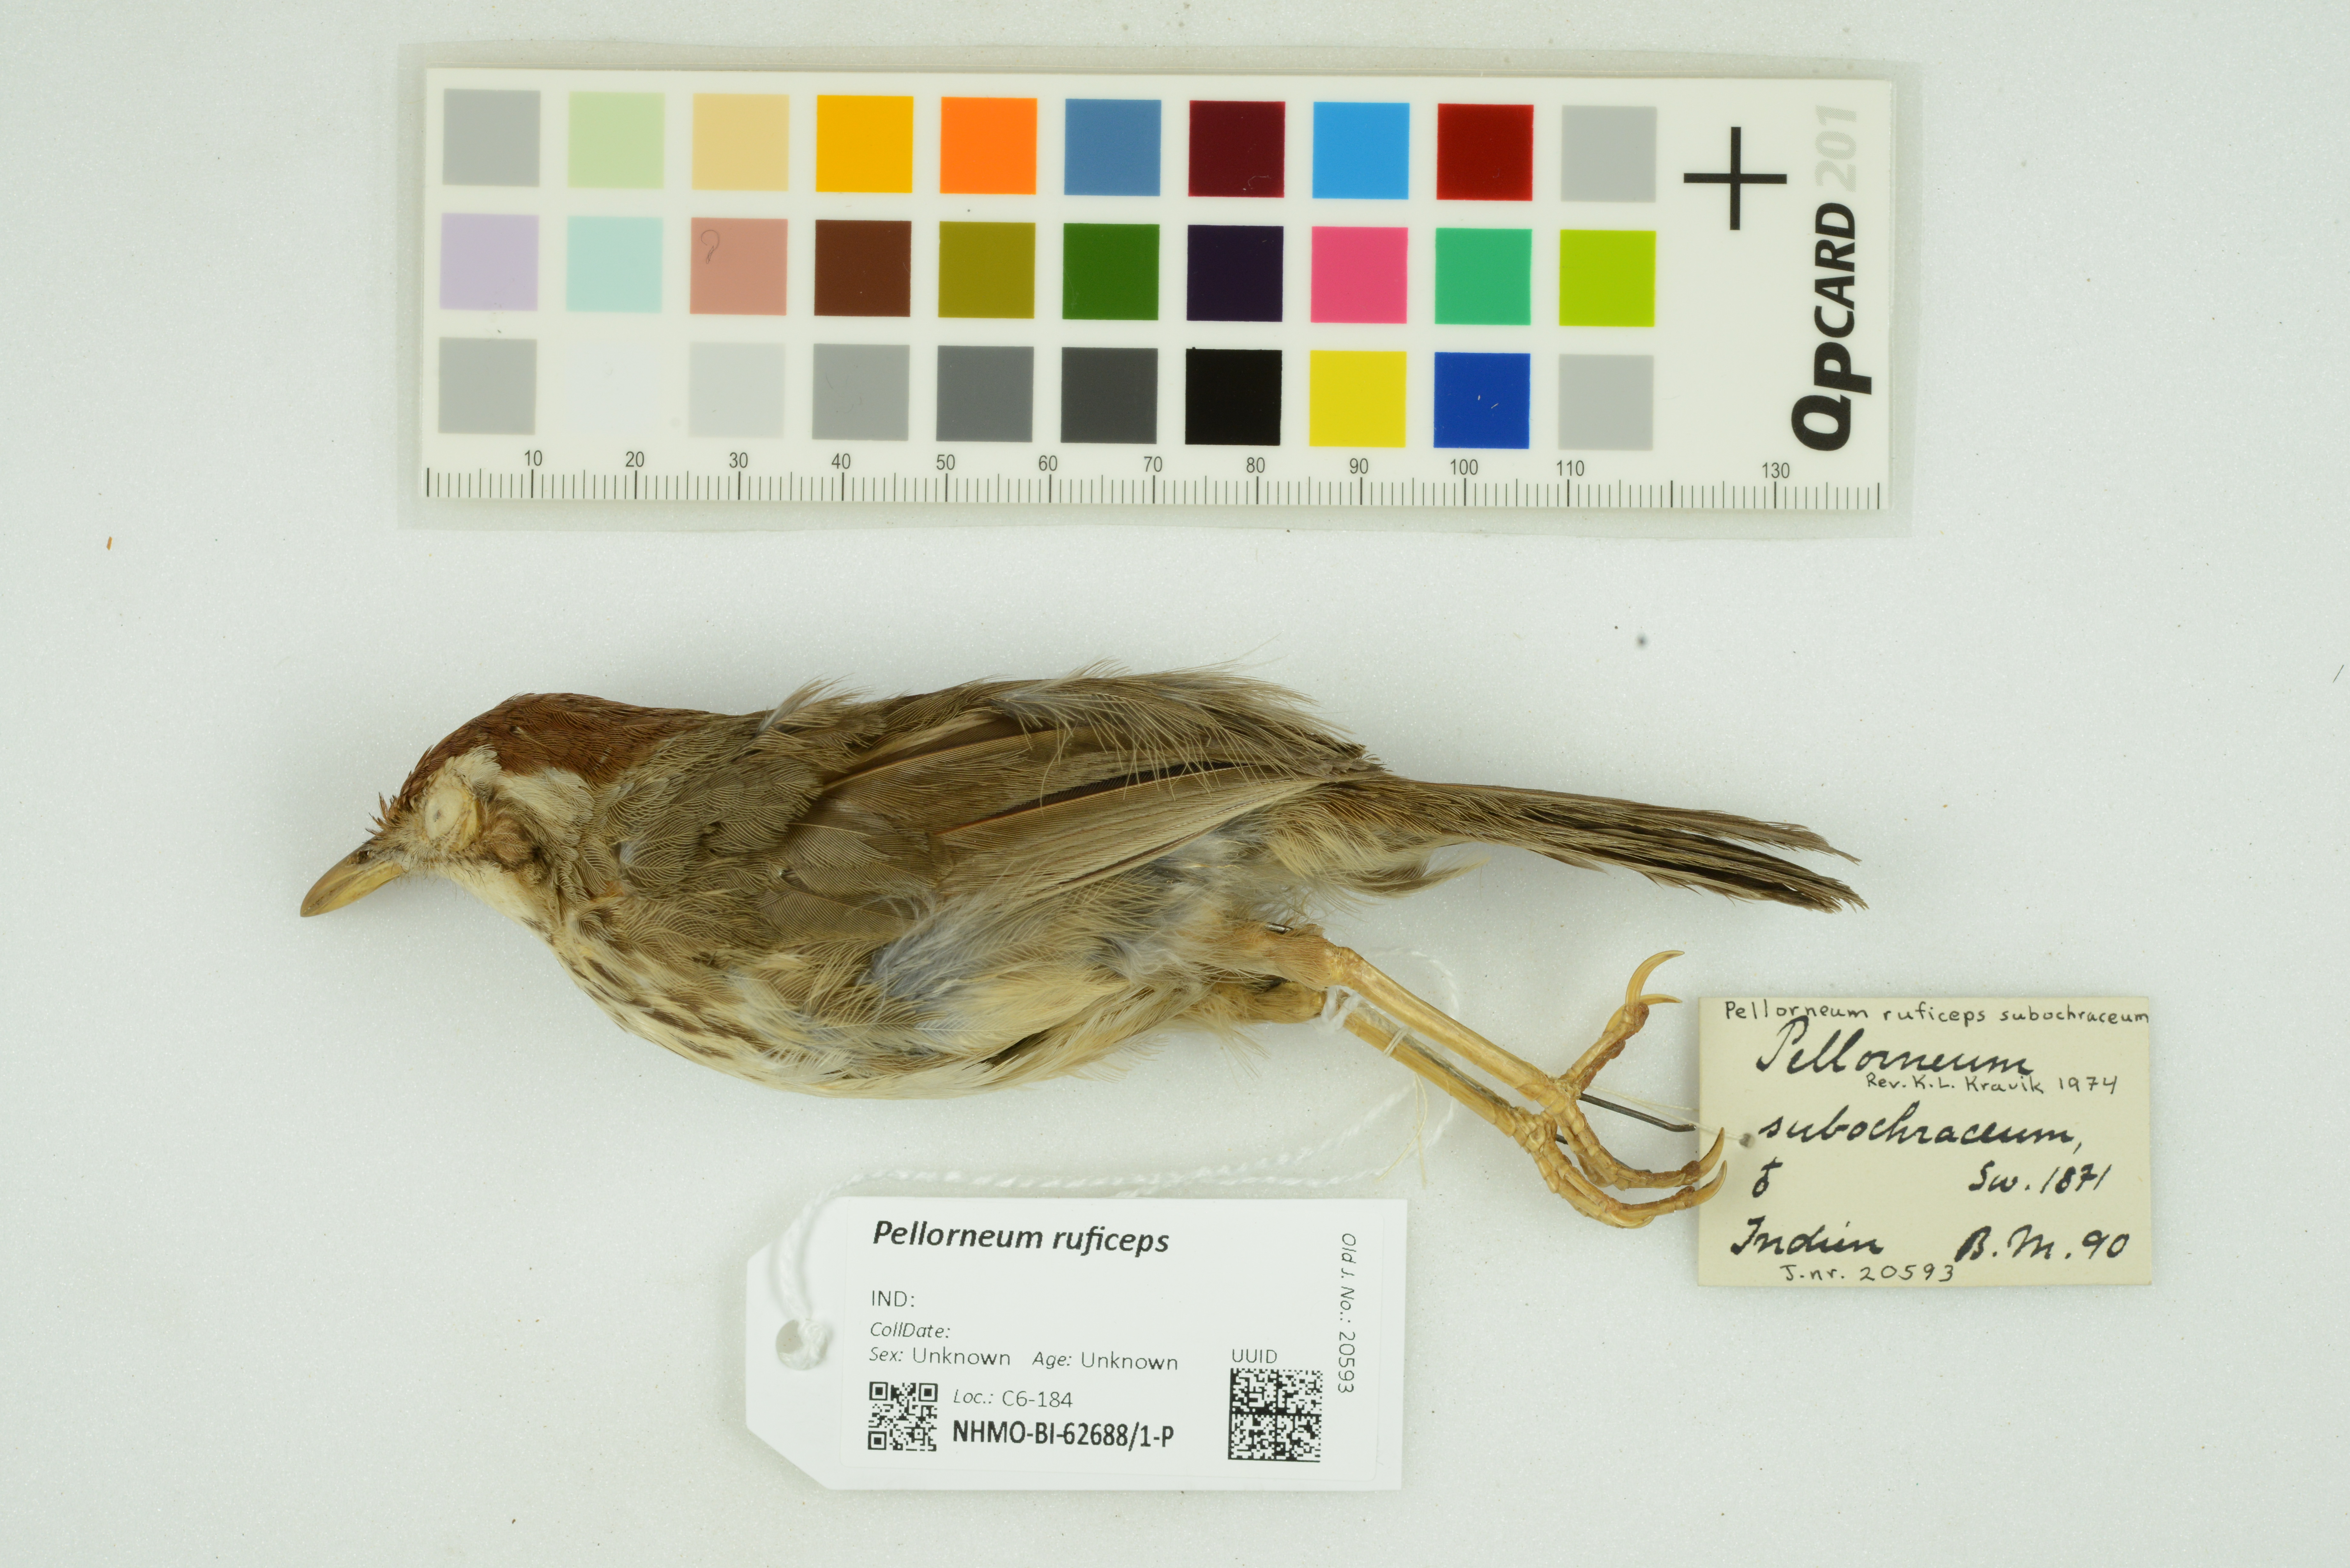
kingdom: Animalia
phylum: Chordata
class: Aves
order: Passeriformes
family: Pellorneidae
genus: Pellorneum
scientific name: Pellorneum ruficeps
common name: Puff-throated babbler
